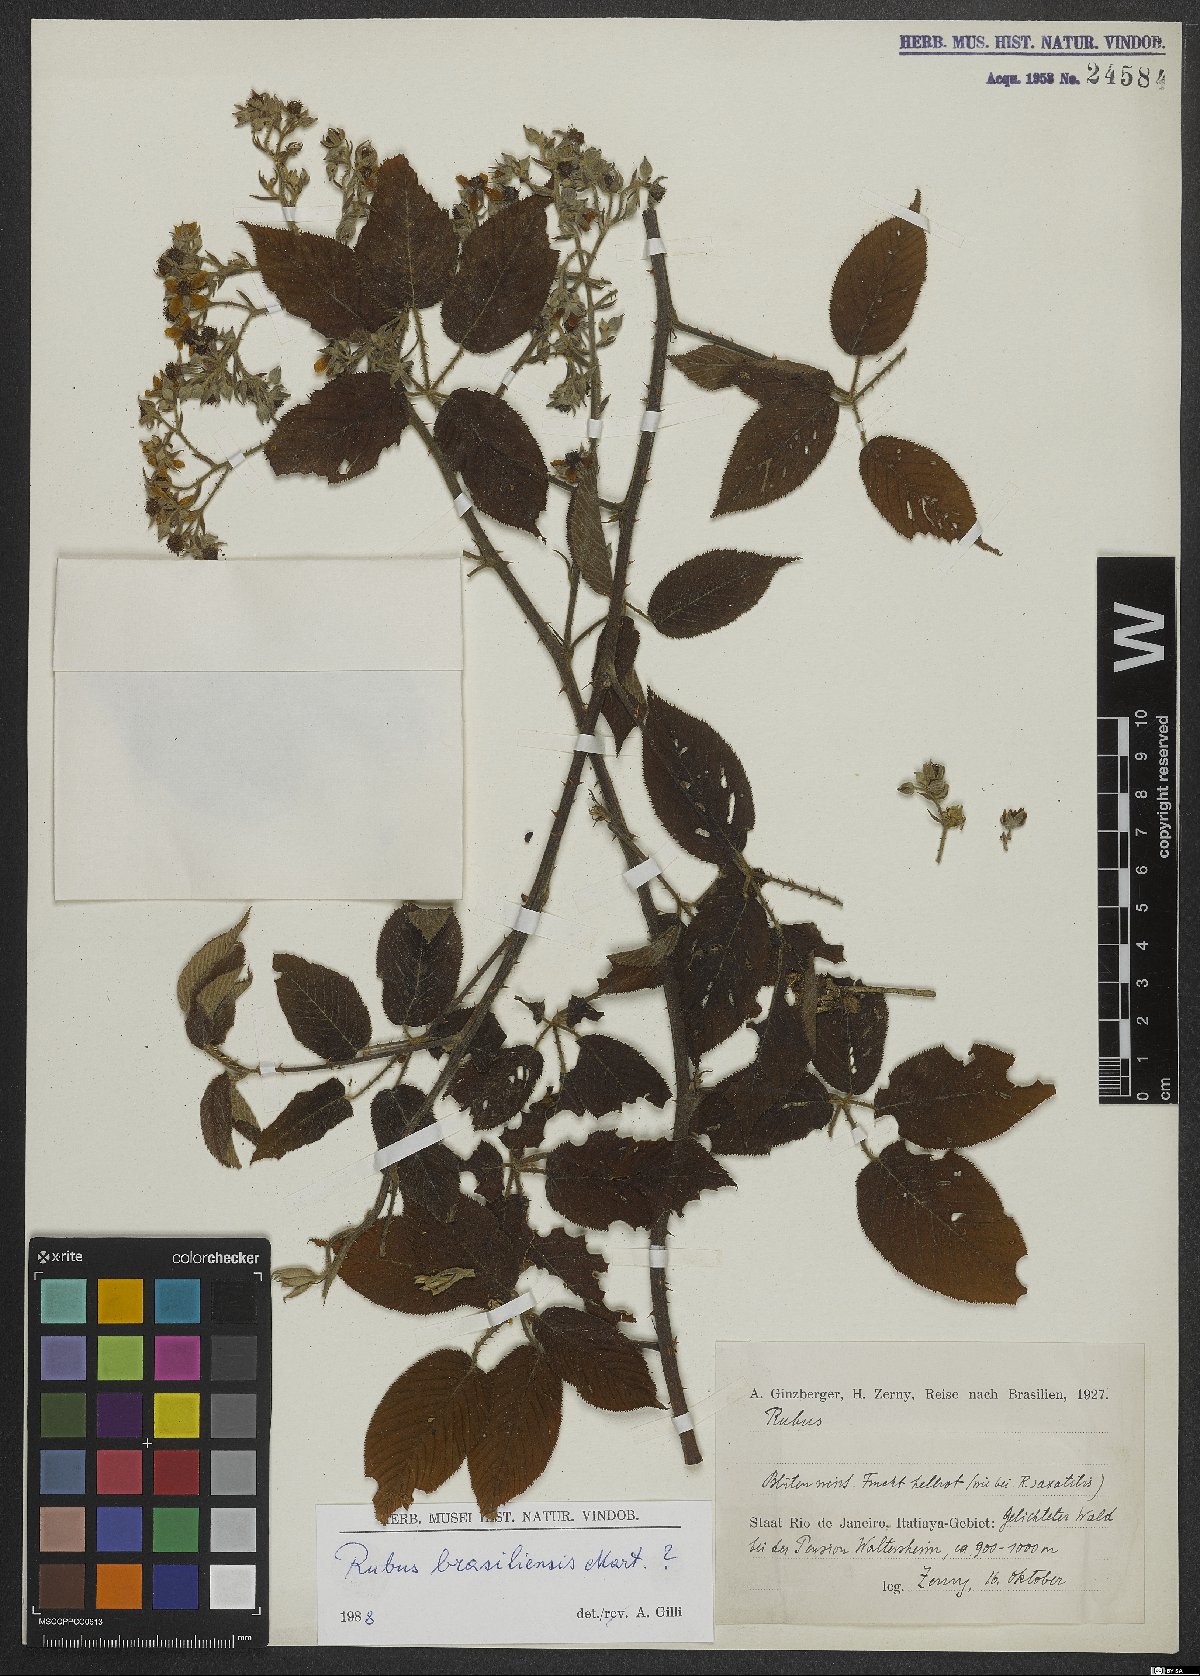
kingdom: Plantae
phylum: Tracheophyta
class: Magnoliopsida
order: Rosales
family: Rosaceae
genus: Rubus
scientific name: Rubus brasiliensis
